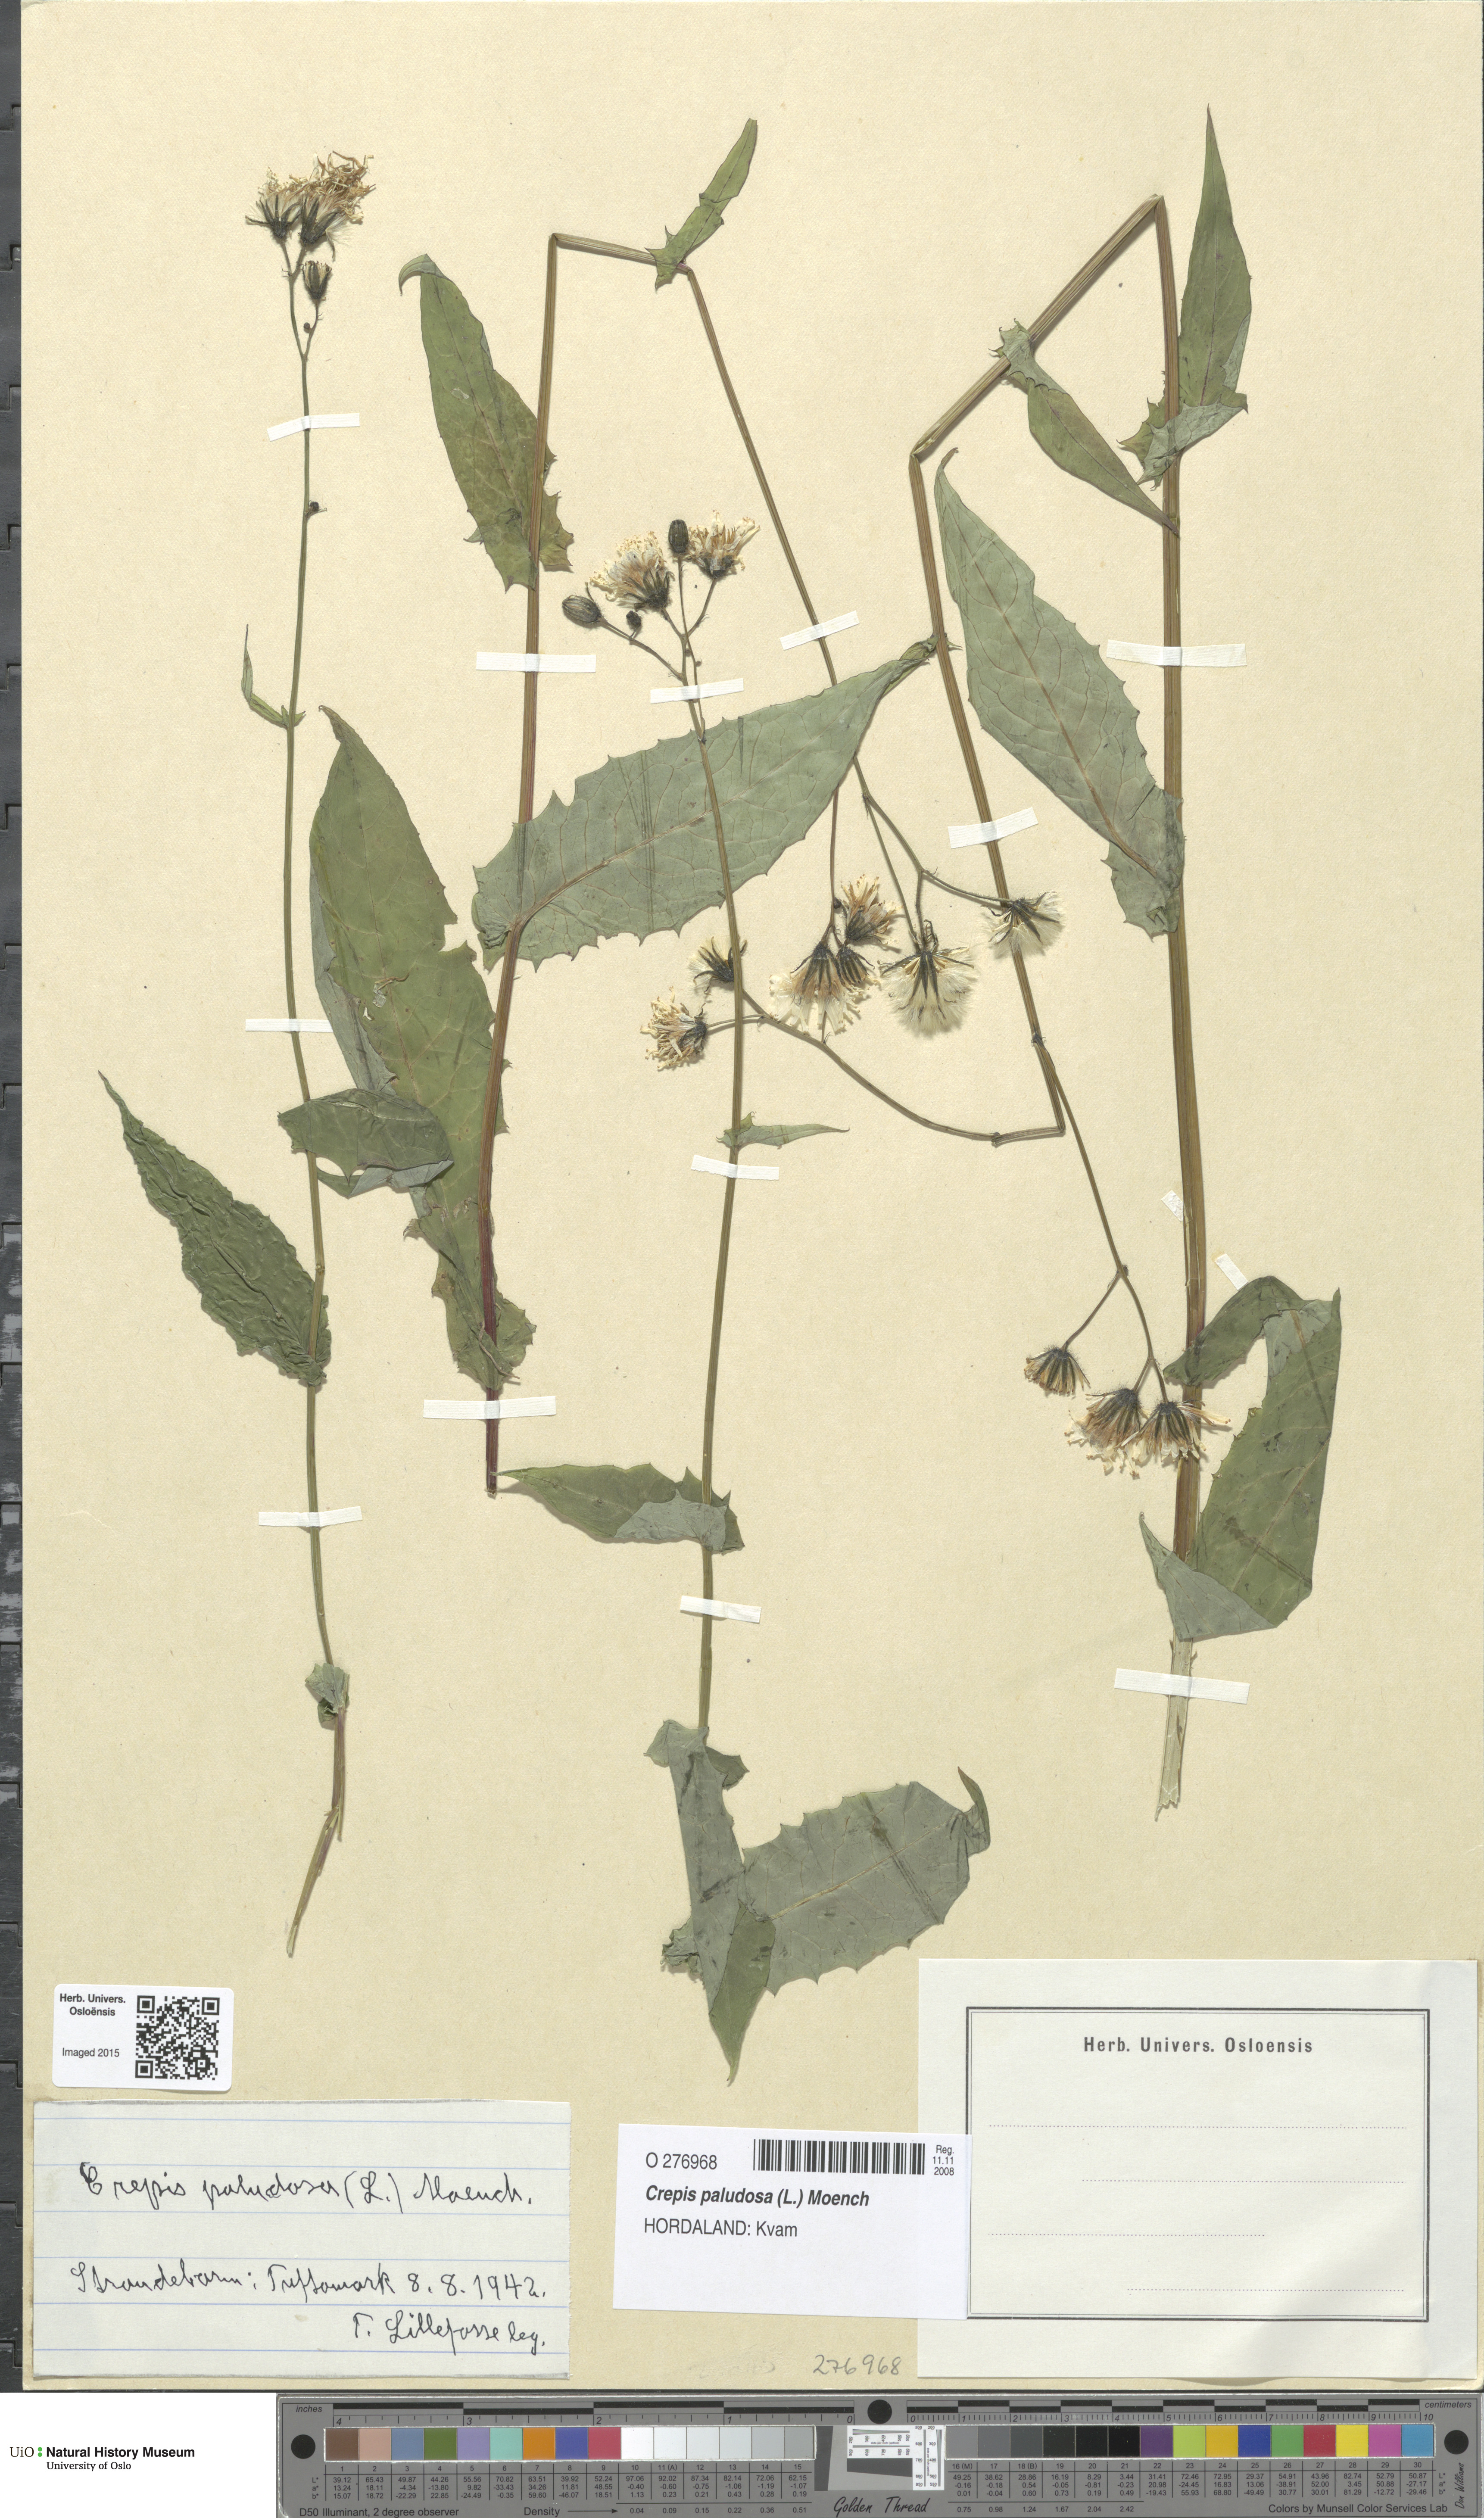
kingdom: Plantae
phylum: Tracheophyta
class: Magnoliopsida
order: Asterales
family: Asteraceae
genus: Crepis
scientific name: Crepis paludosa
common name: Marsh hawk's-beard
